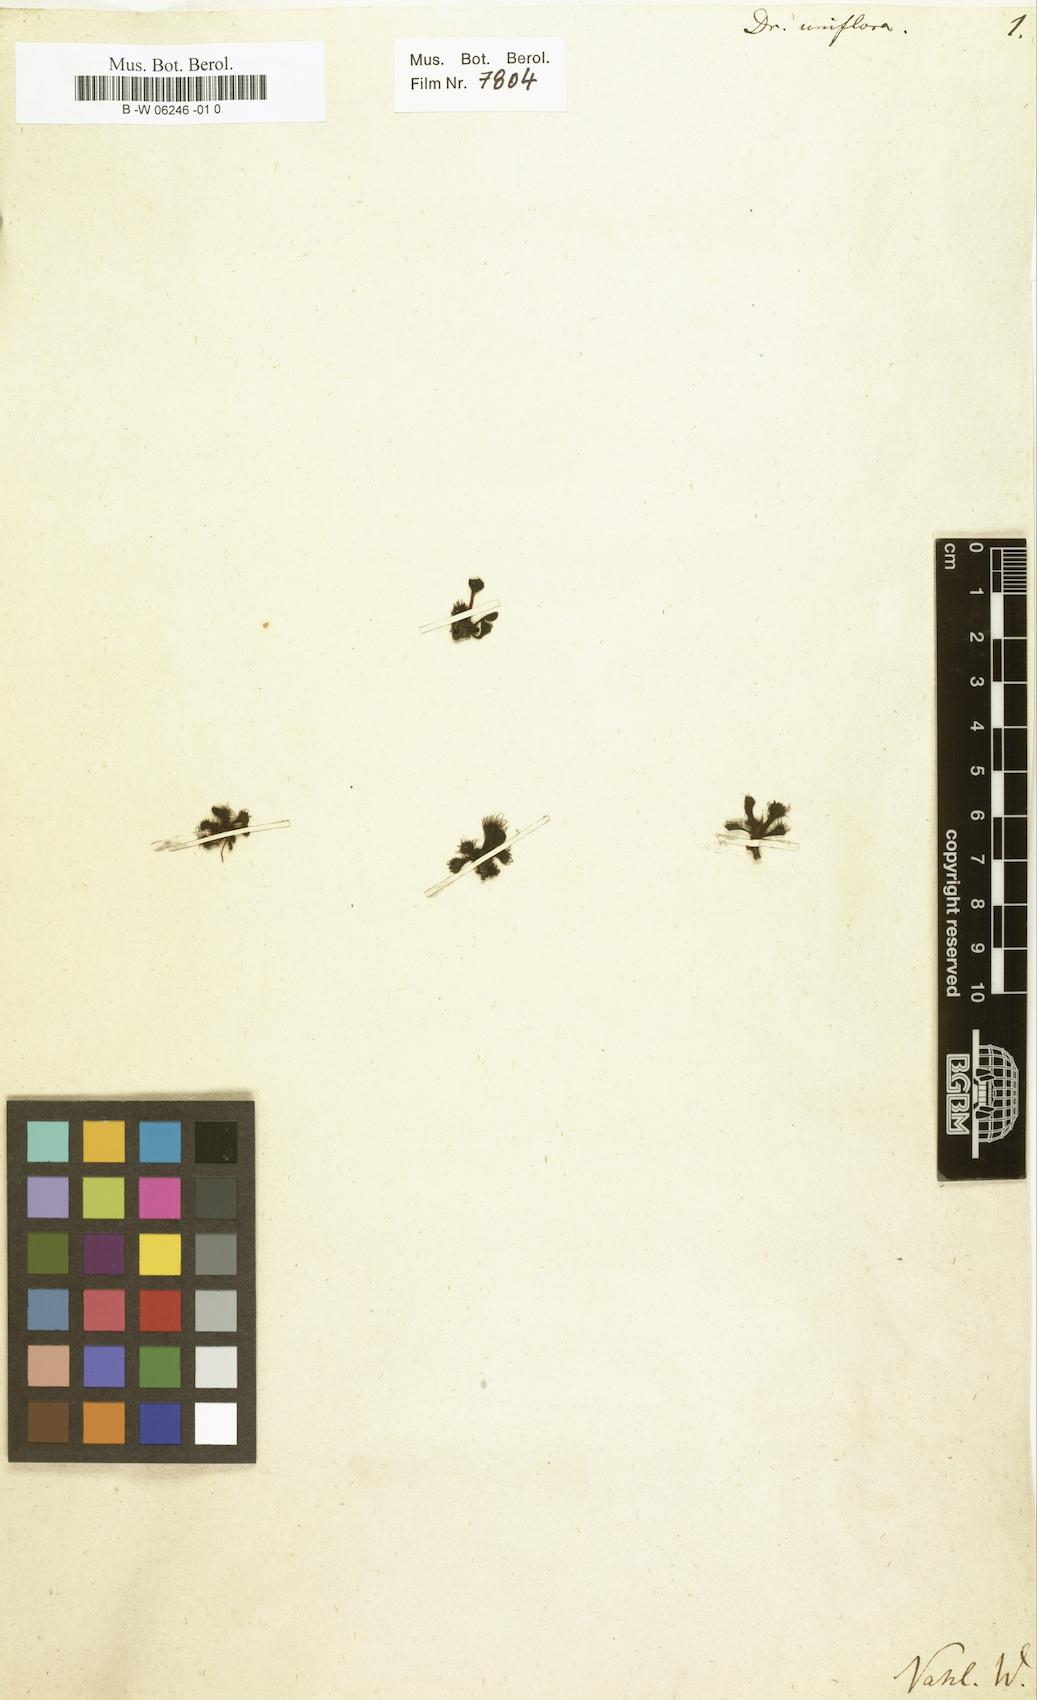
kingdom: Plantae
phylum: Tracheophyta
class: Magnoliopsida
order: Caryophyllales
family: Droseraceae
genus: Drosera
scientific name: Drosera uniflora
